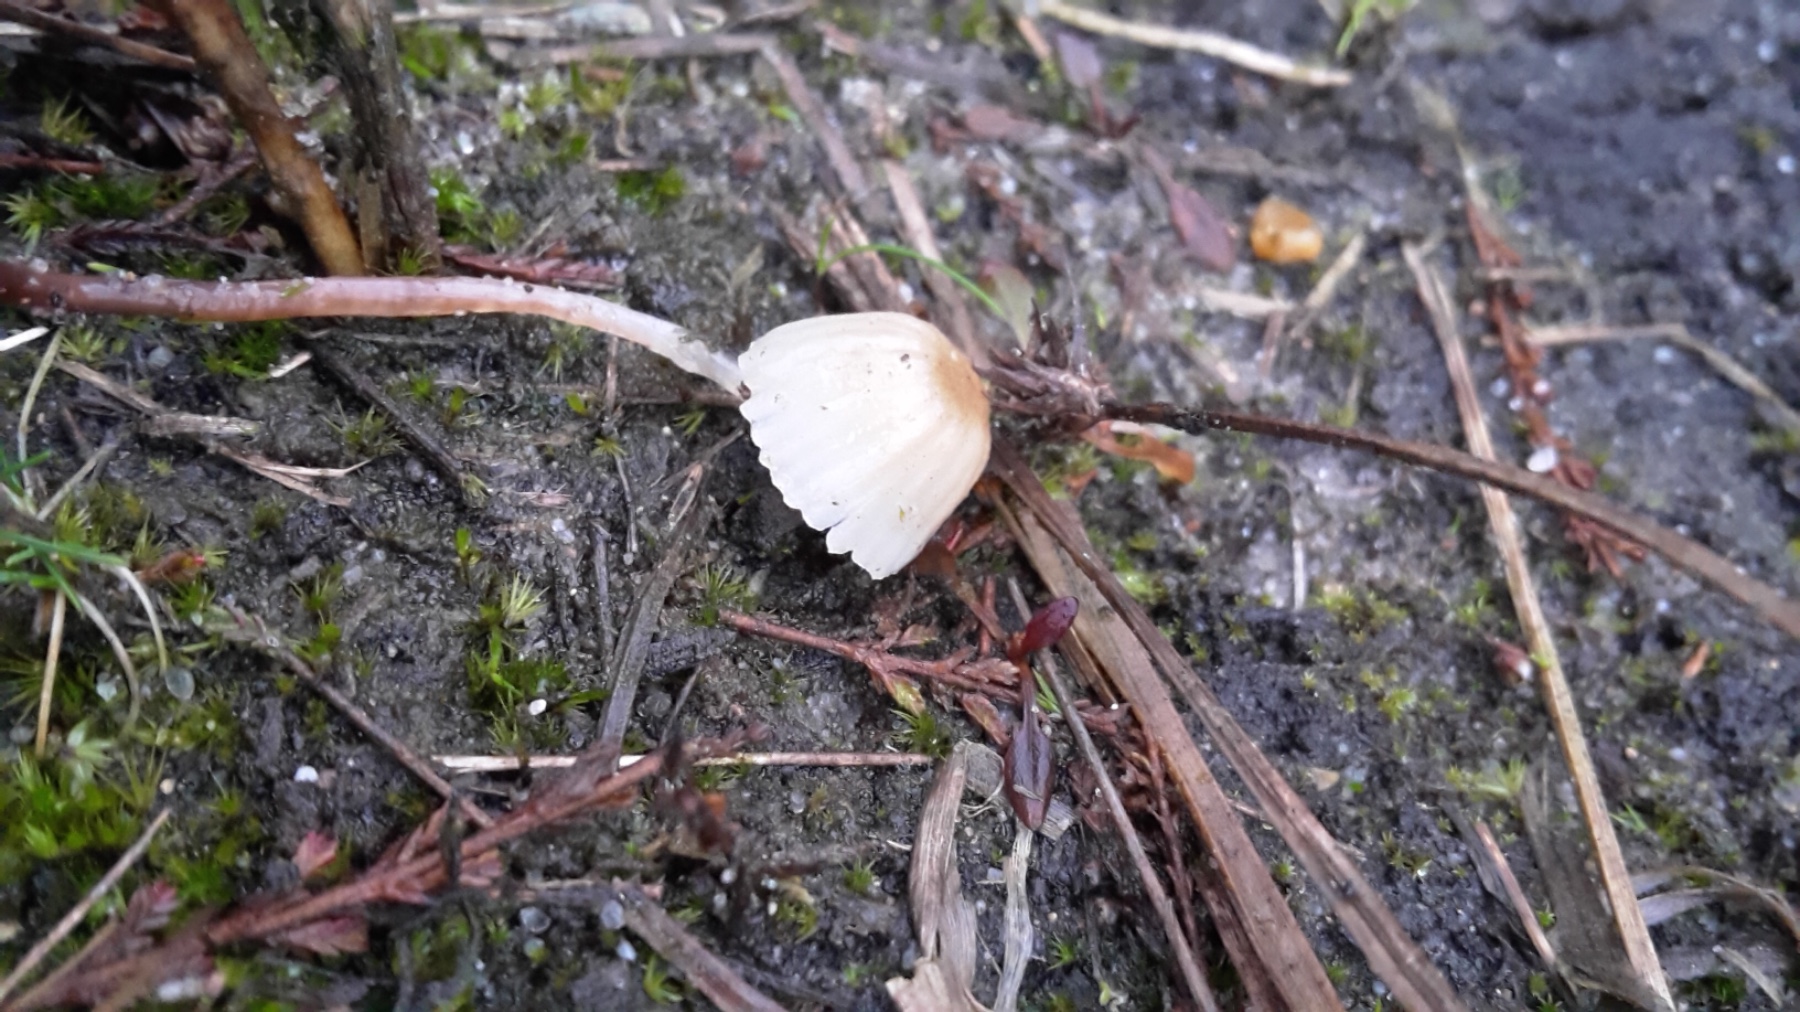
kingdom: Fungi
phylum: Basidiomycota
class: Agaricomycetes
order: Agaricales
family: Mycenaceae
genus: Mycena
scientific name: Mycena epipterygia
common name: gulstokket huesvamp
